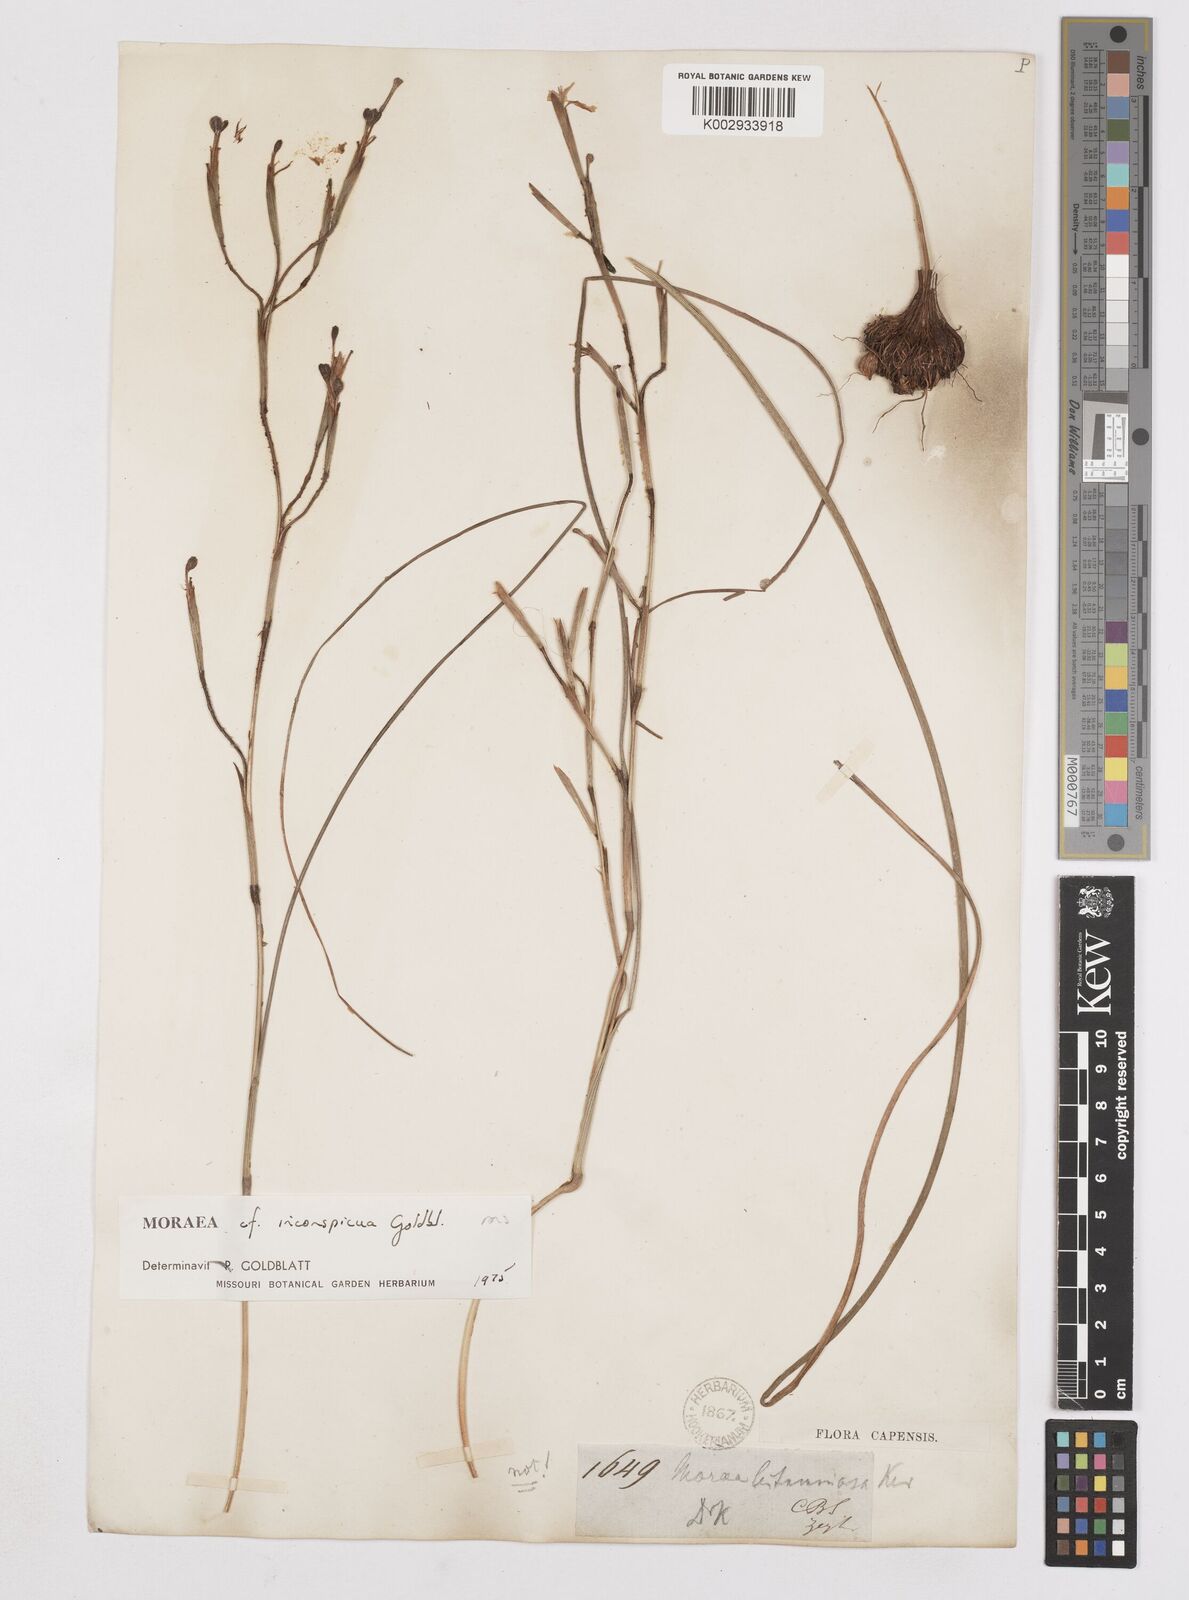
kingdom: Plantae
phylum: Tracheophyta
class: Liliopsida
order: Asparagales
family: Iridaceae
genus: Moraea
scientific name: Moraea inconspicua
